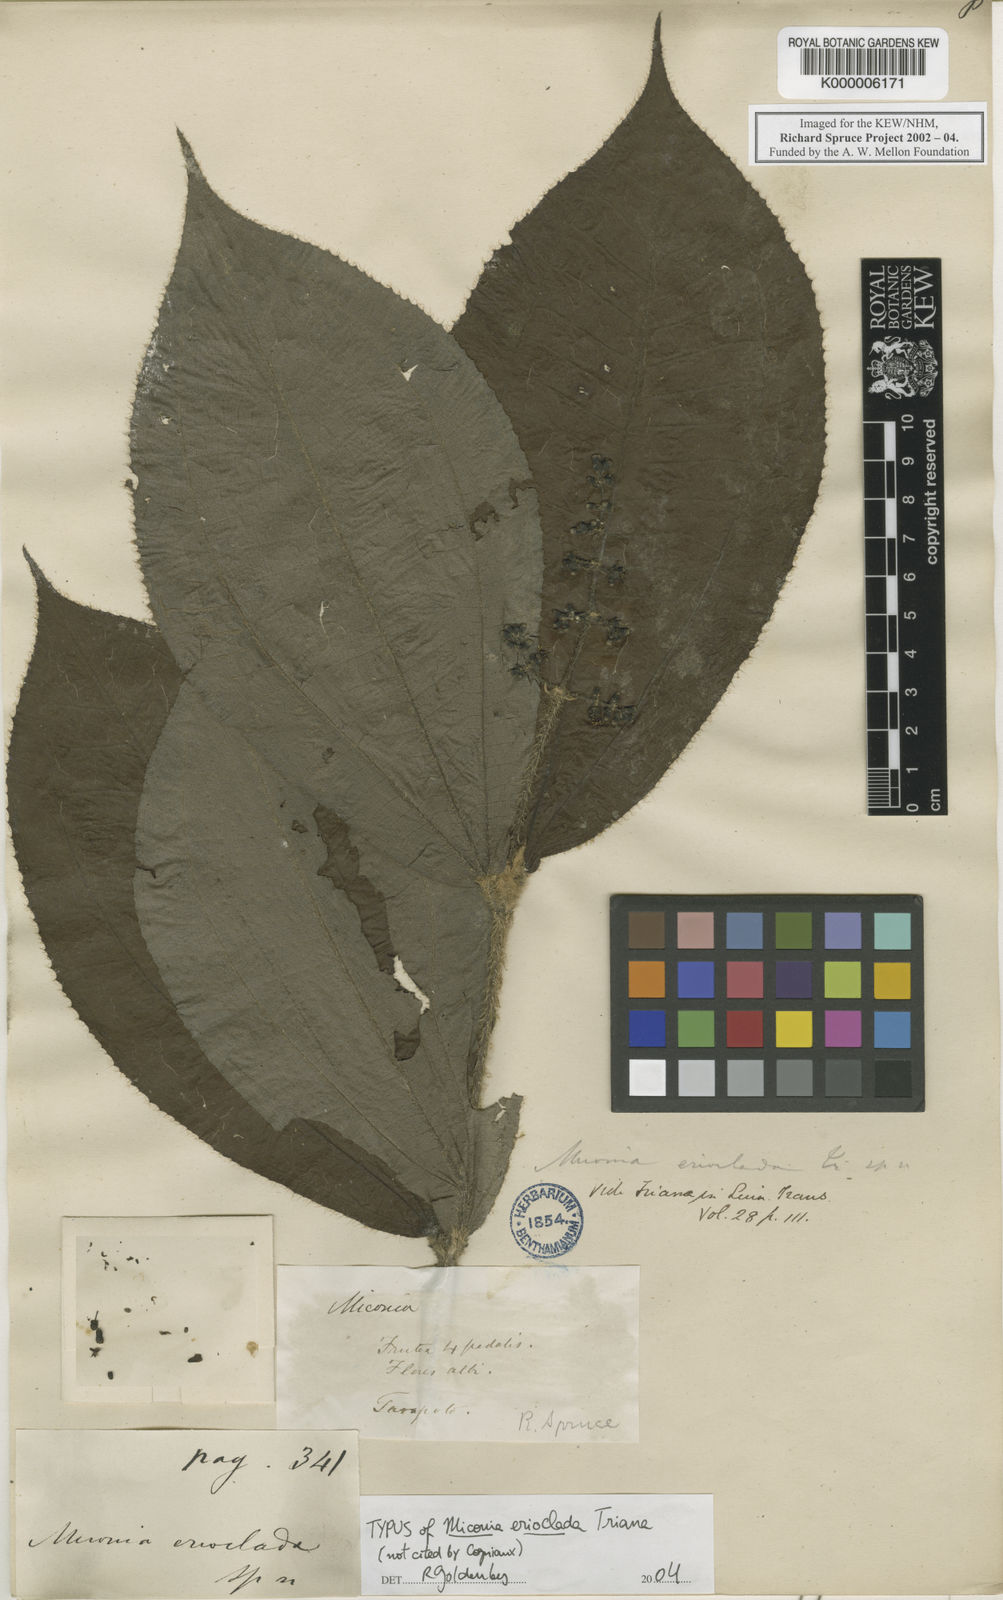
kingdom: Plantae
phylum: Tracheophyta
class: Magnoliopsida
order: Myrtales
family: Melastomataceae
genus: Miconia
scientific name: Miconia erioclada
